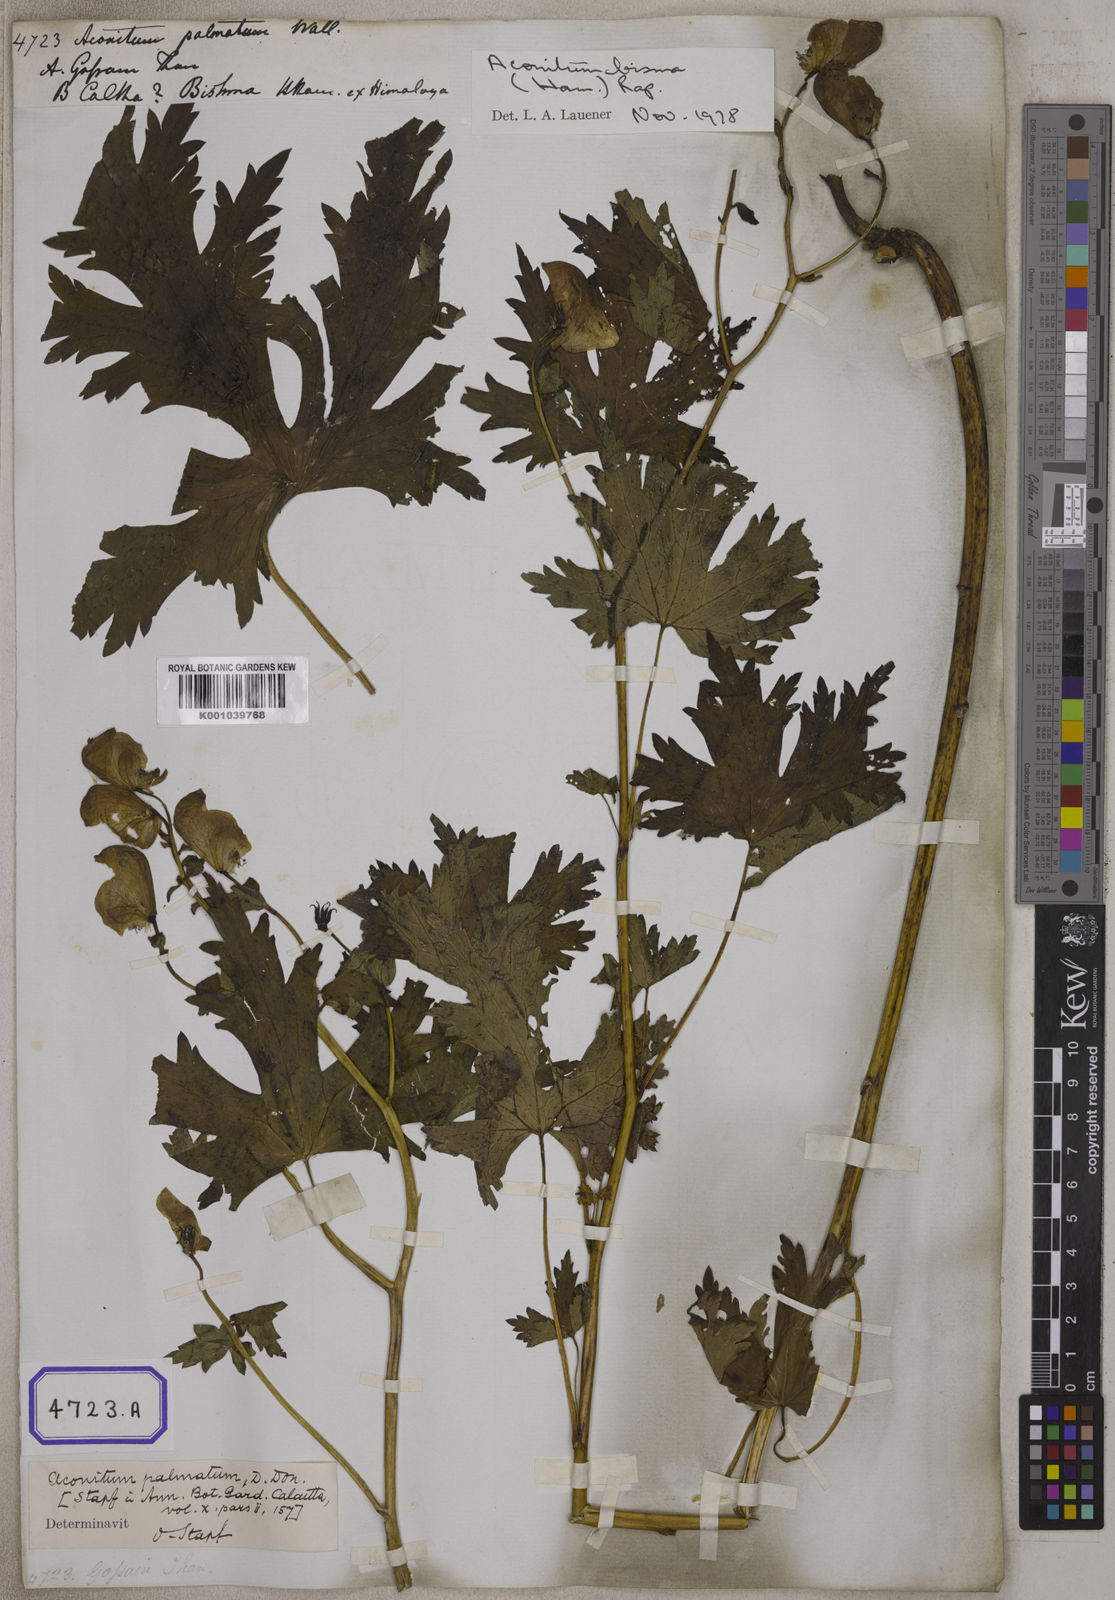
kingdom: Plantae
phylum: Tracheophyta
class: Magnoliopsida
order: Ranunculales
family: Ranunculaceae
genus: Aconitum
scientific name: Aconitum
